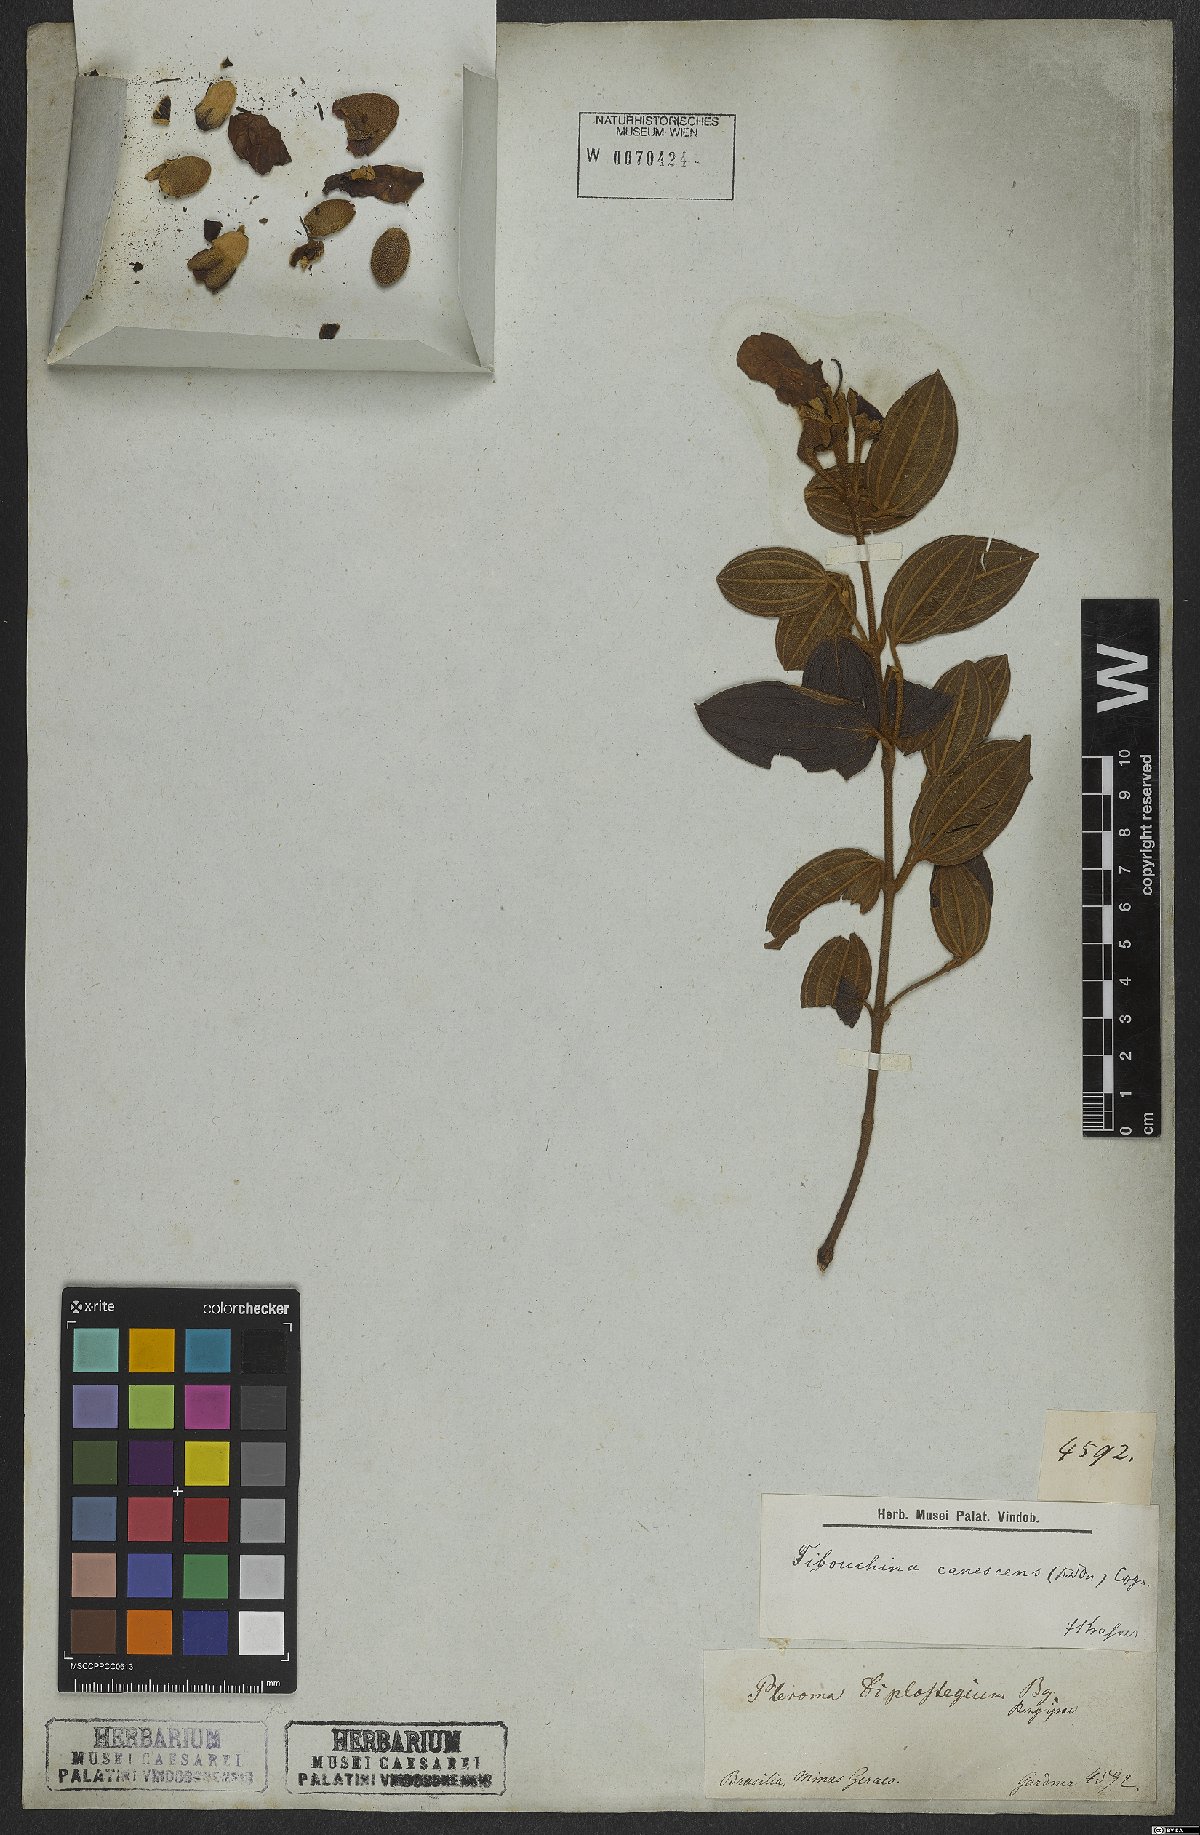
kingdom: Plantae
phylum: Tracheophyta
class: Magnoliopsida
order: Myrtales
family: Melastomataceae
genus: Pleroma
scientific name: Pleroma canescens
